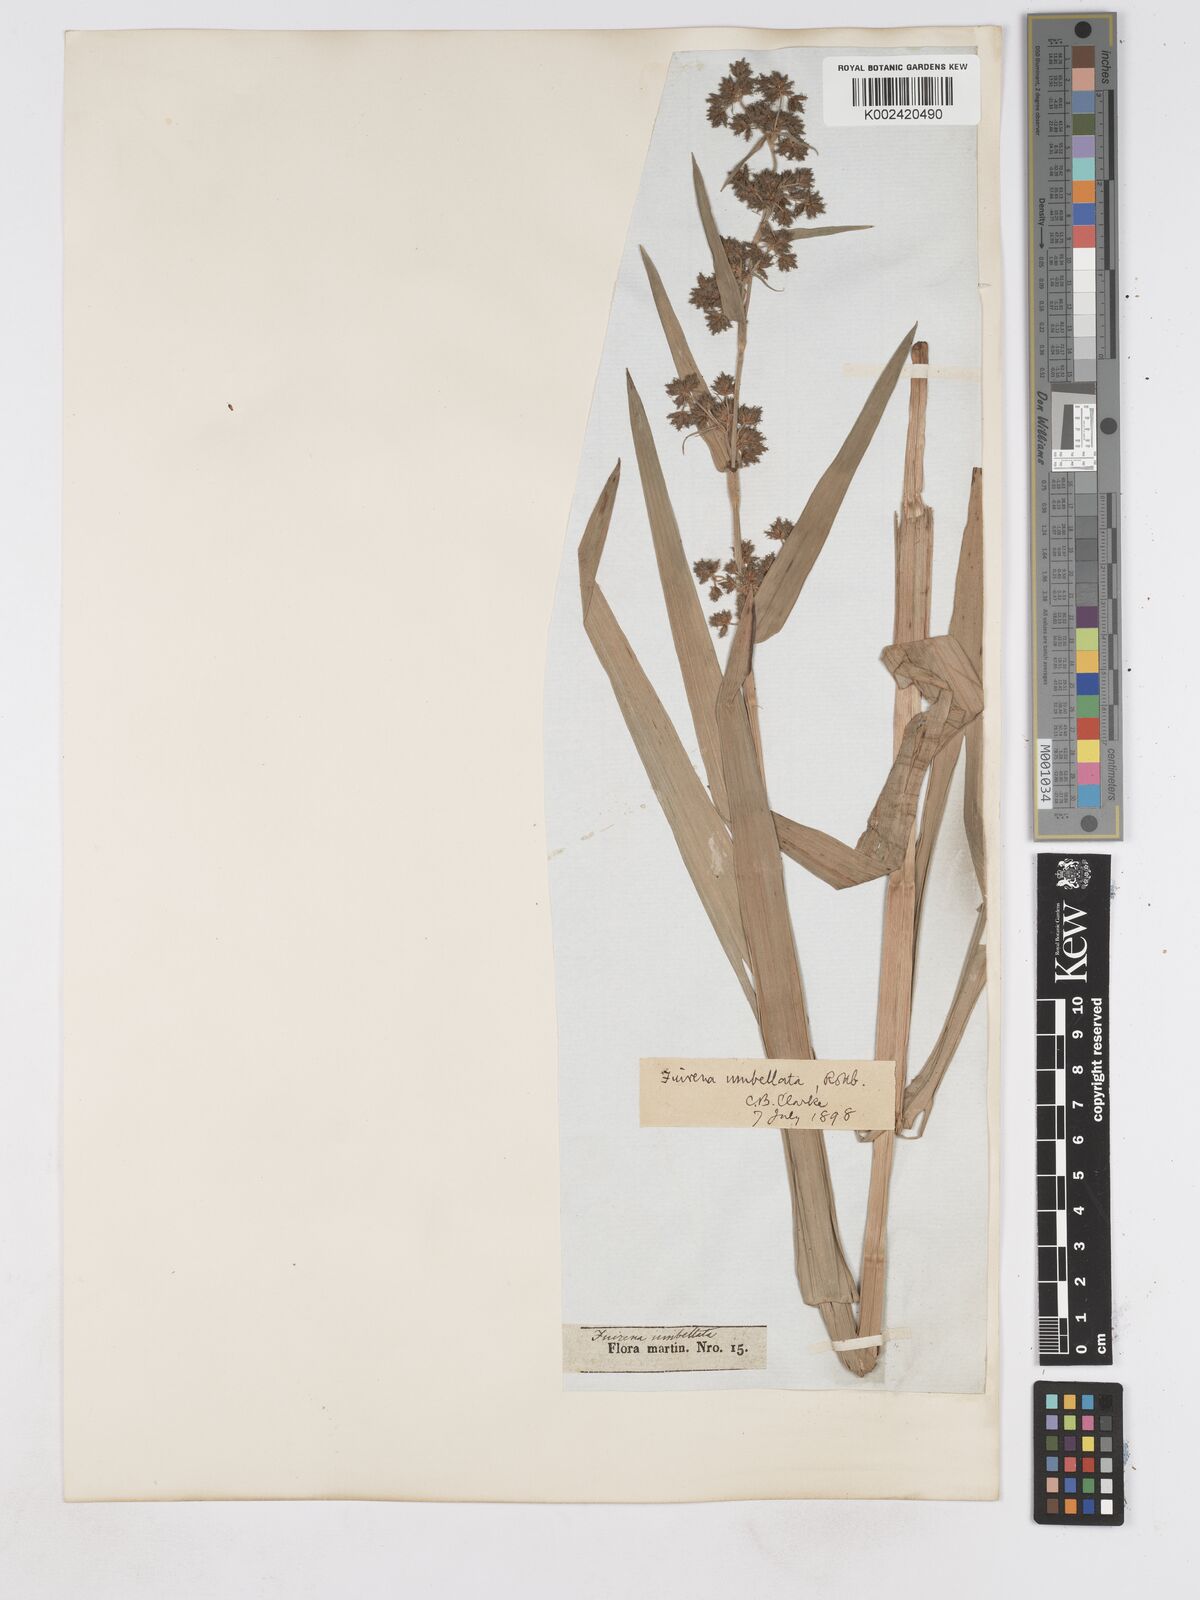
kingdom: Plantae
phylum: Tracheophyta
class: Liliopsida
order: Poales
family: Cyperaceae
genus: Fuirena
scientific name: Fuirena umbellata
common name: Yefen
